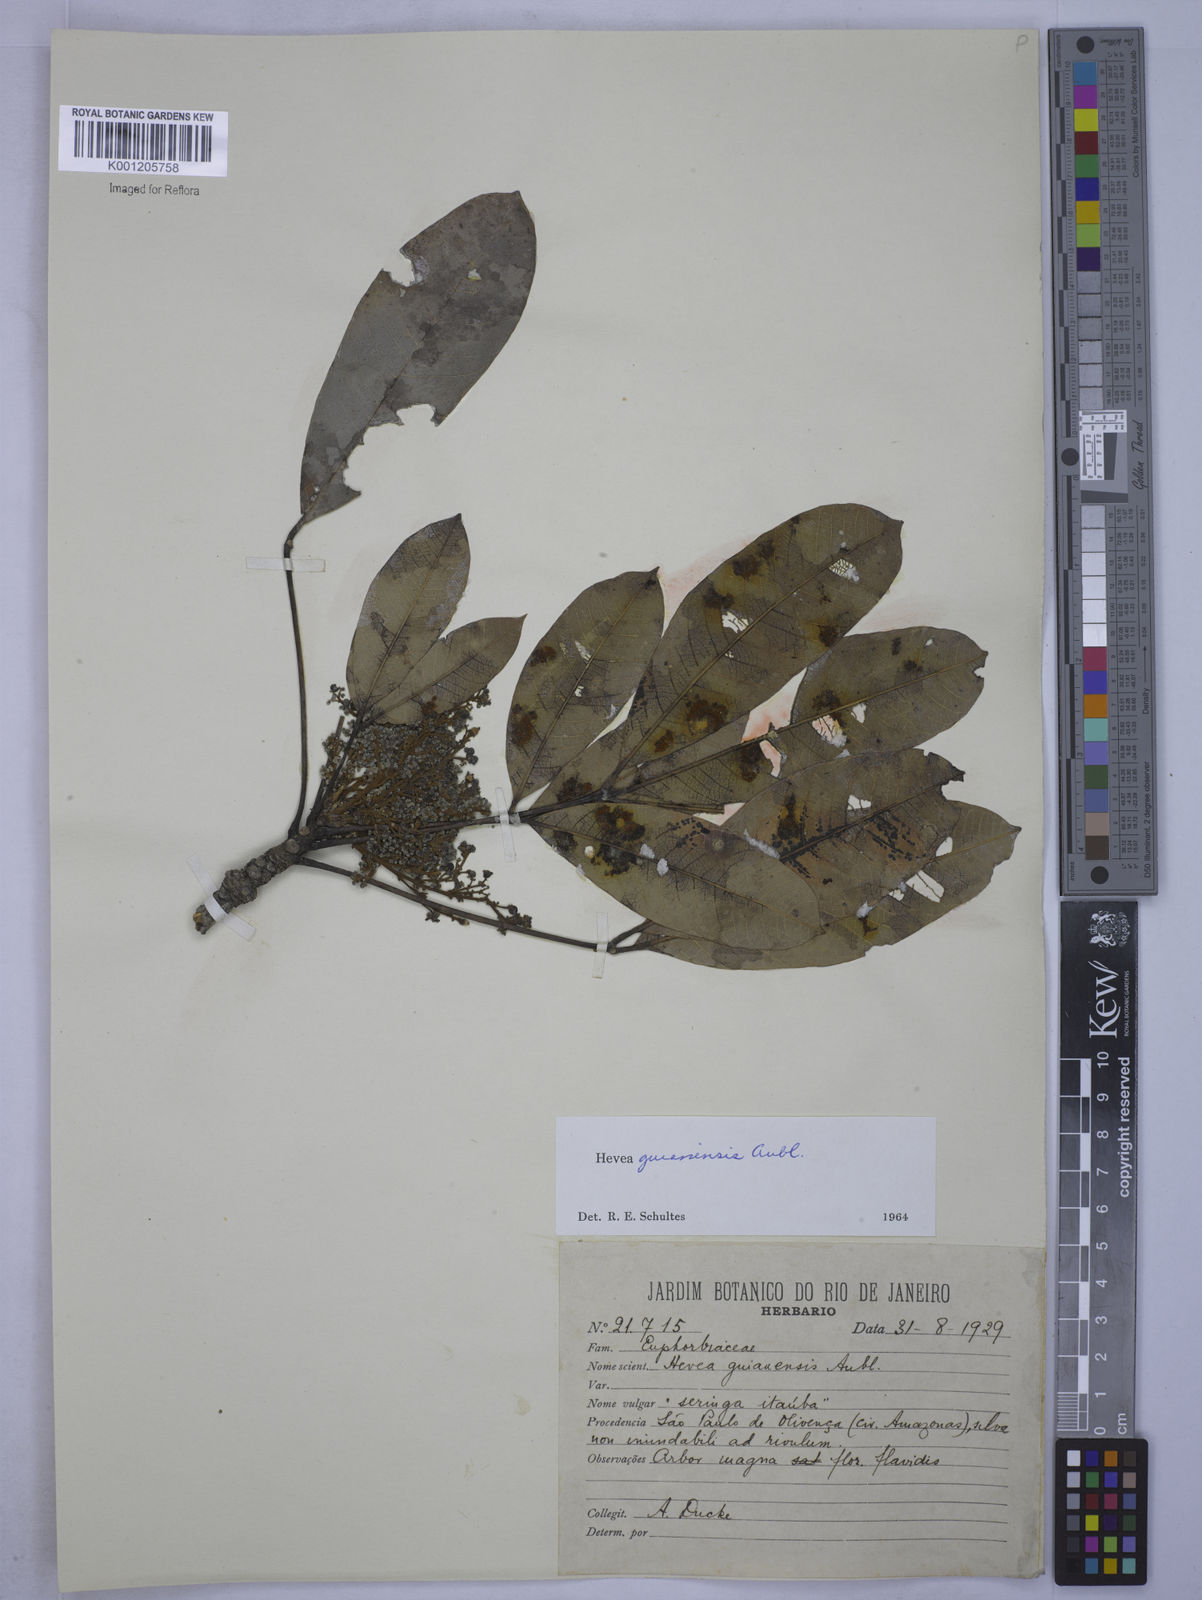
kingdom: Plantae
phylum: Tracheophyta
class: Magnoliopsida
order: Malpighiales
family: Euphorbiaceae
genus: Hevea
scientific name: Hevea guianensis
